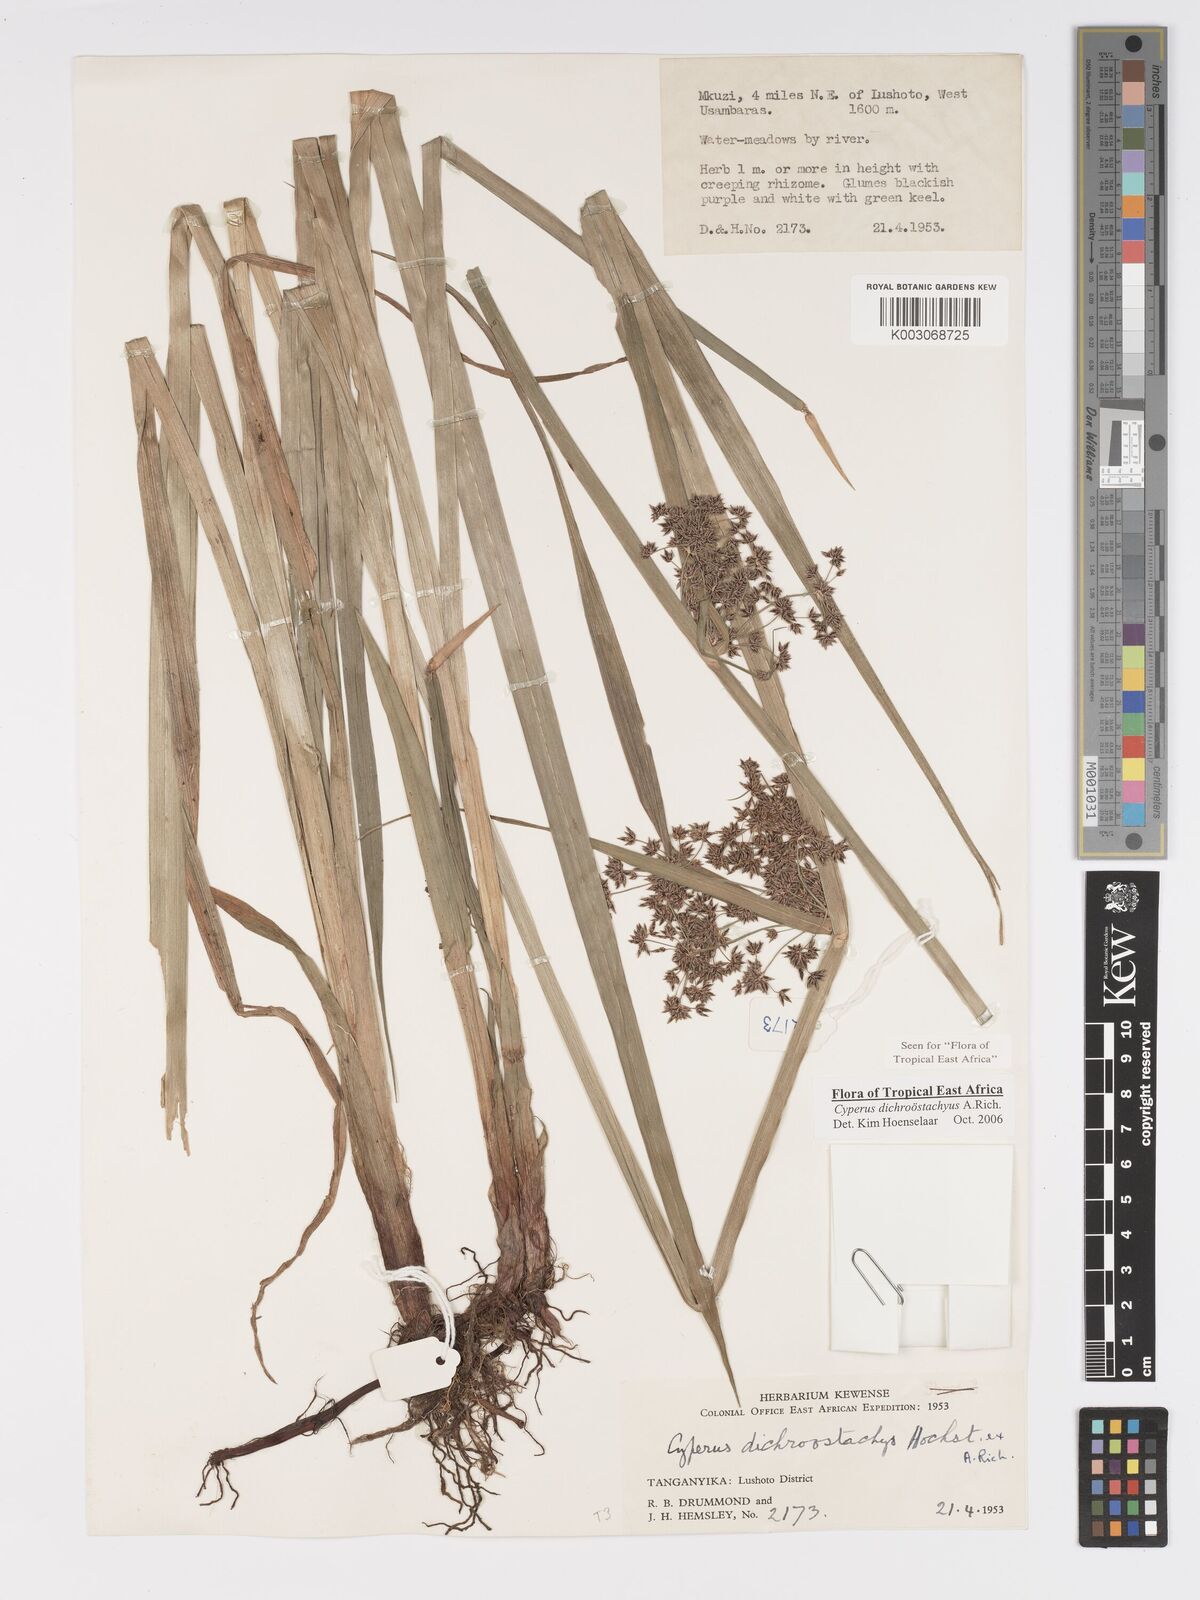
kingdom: Plantae
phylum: Tracheophyta
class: Liliopsida
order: Poales
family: Cyperaceae
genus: Cyperus
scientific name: Cyperus dichrostachyus
